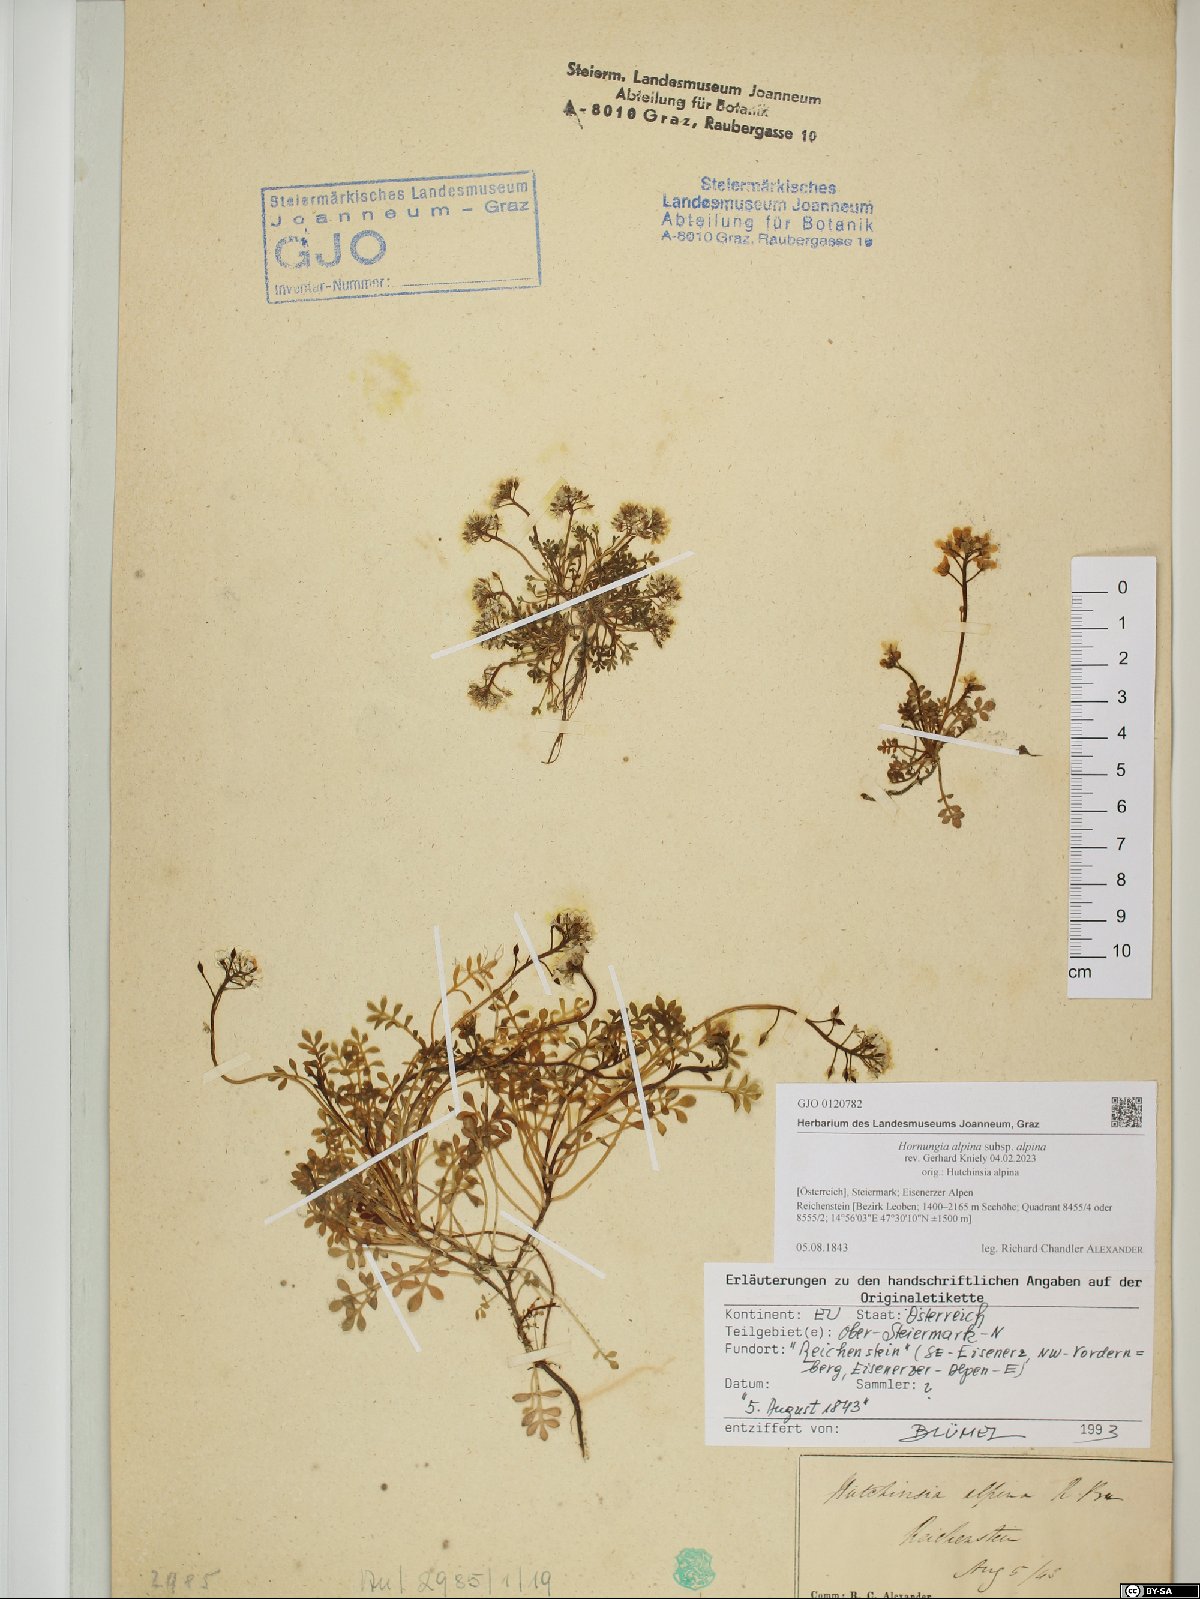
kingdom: Plantae
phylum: Tracheophyta
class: Magnoliopsida
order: Brassicales
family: Brassicaceae
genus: Hornungia
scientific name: Hornungia alpina
